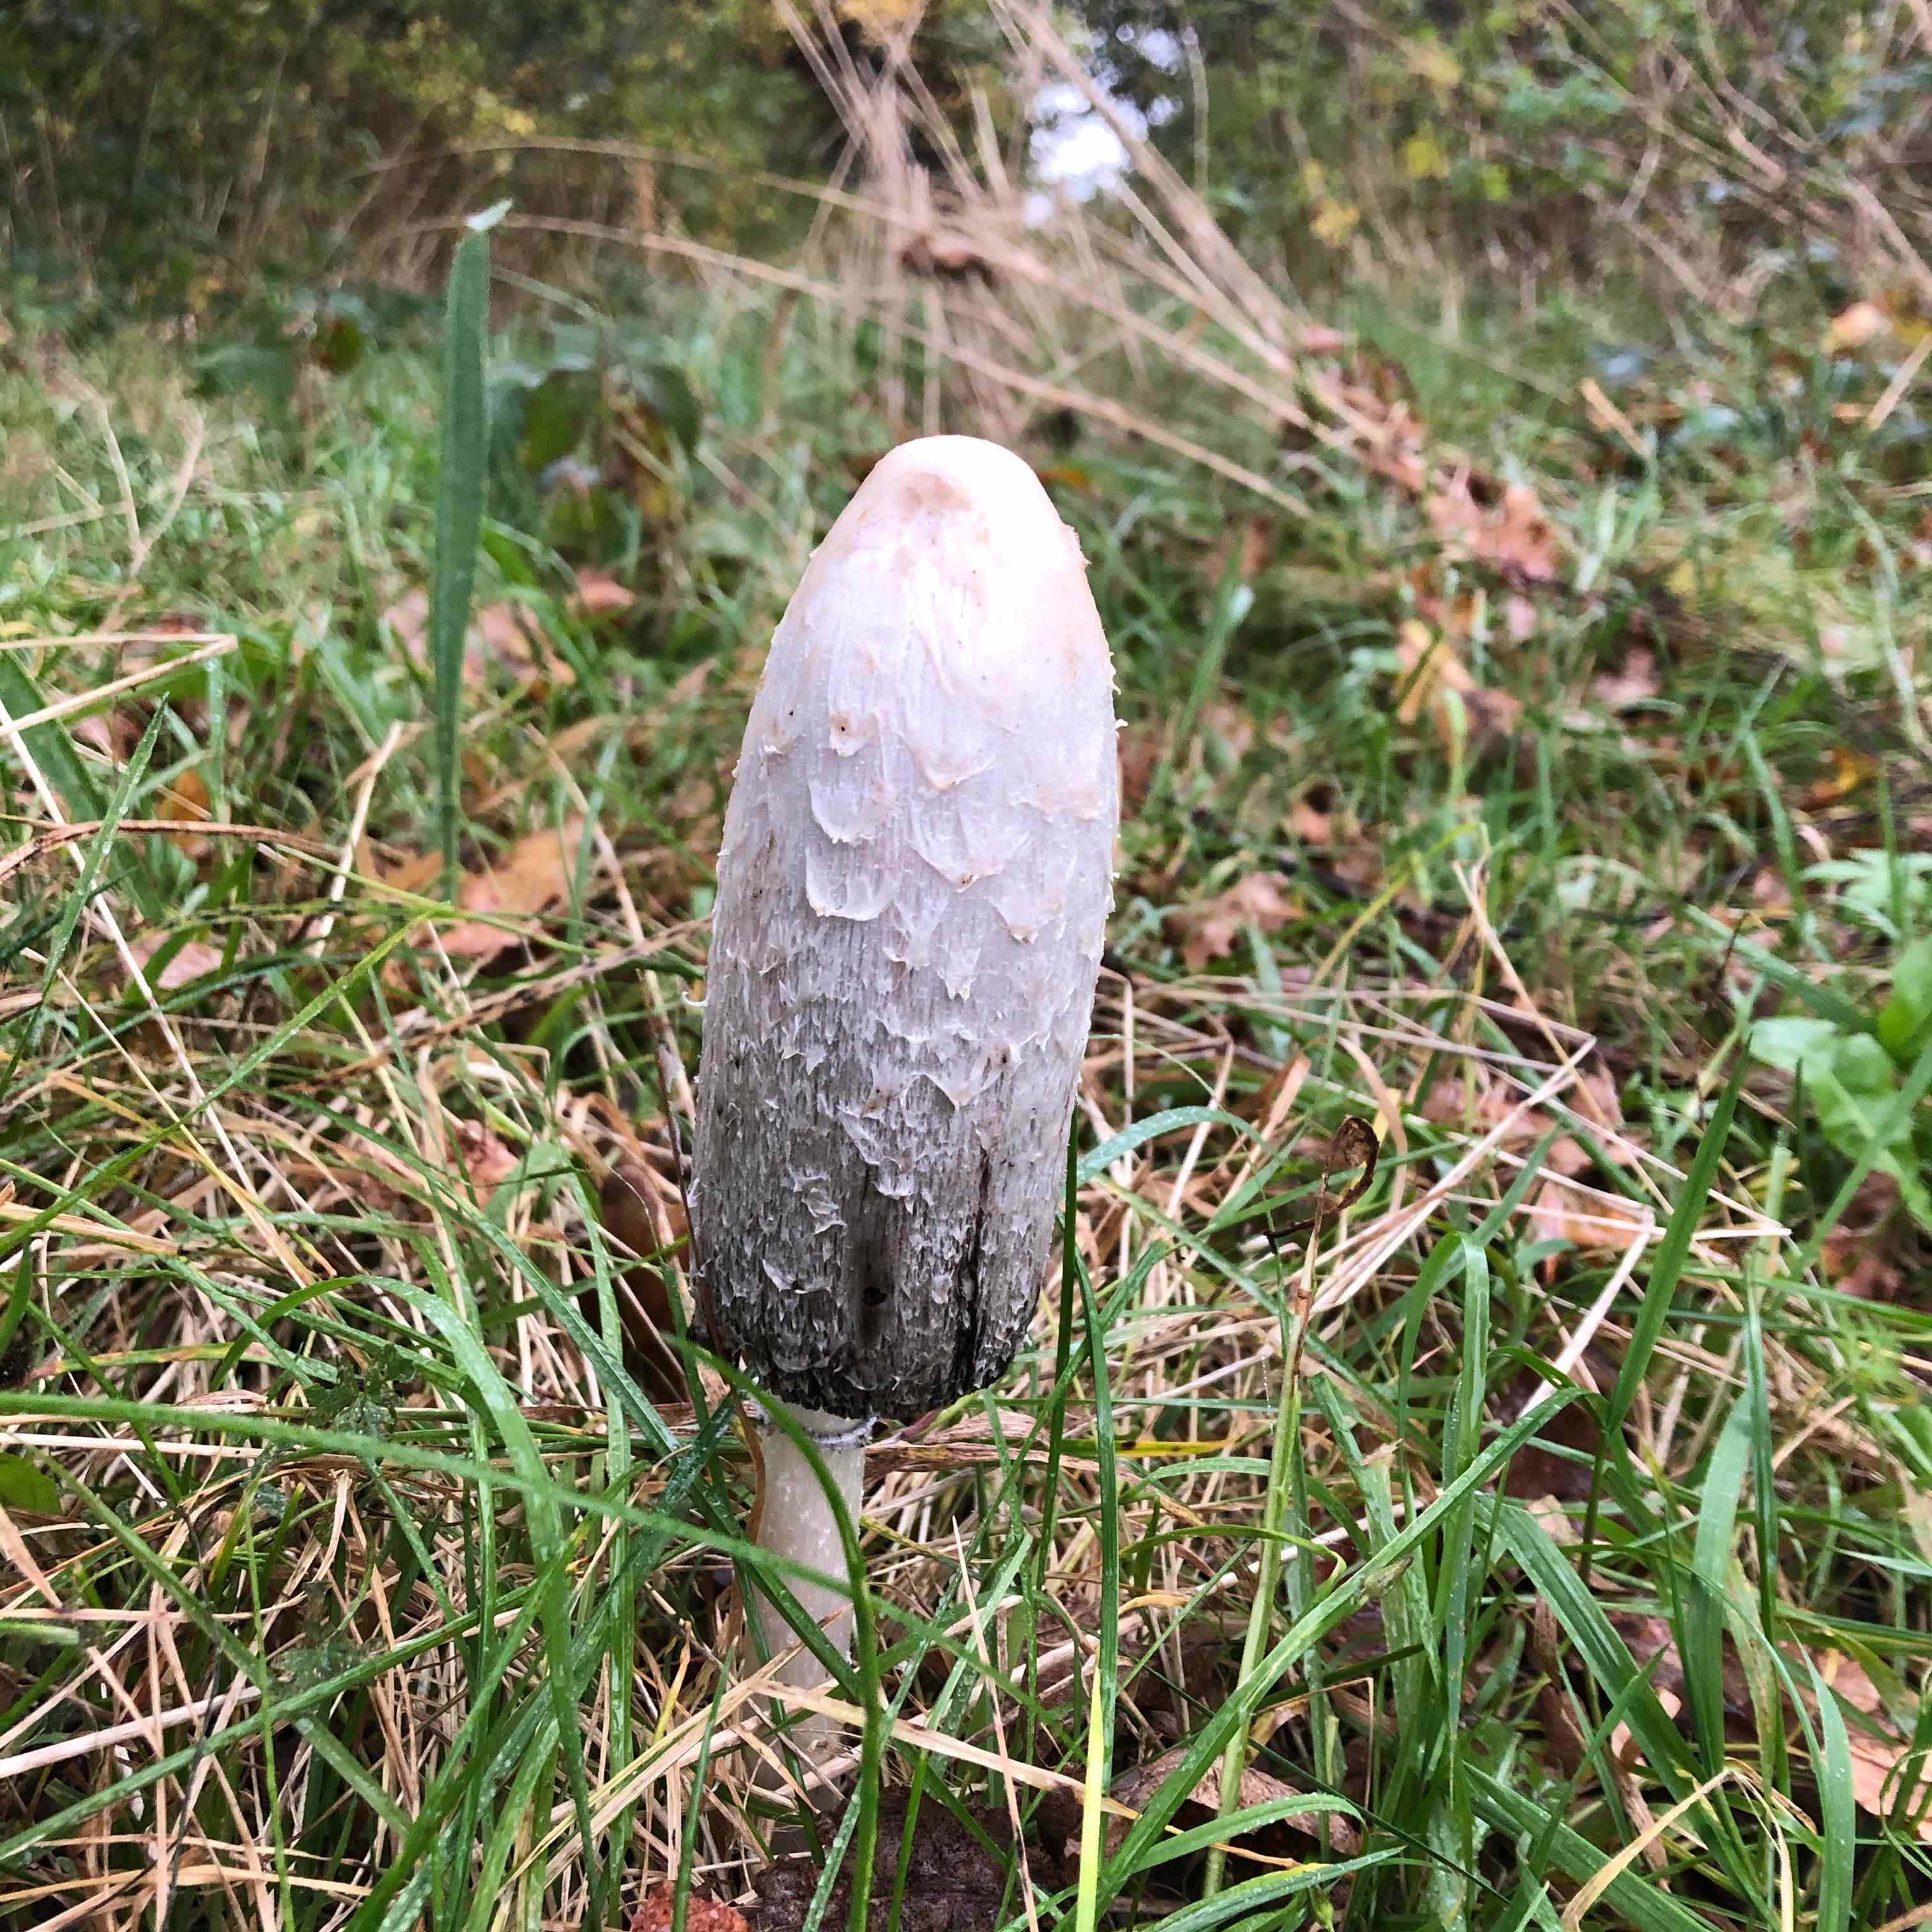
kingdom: Fungi
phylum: Basidiomycota
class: Agaricomycetes
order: Agaricales
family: Agaricaceae
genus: Coprinus
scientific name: Coprinus comatus
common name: stor parykhat
